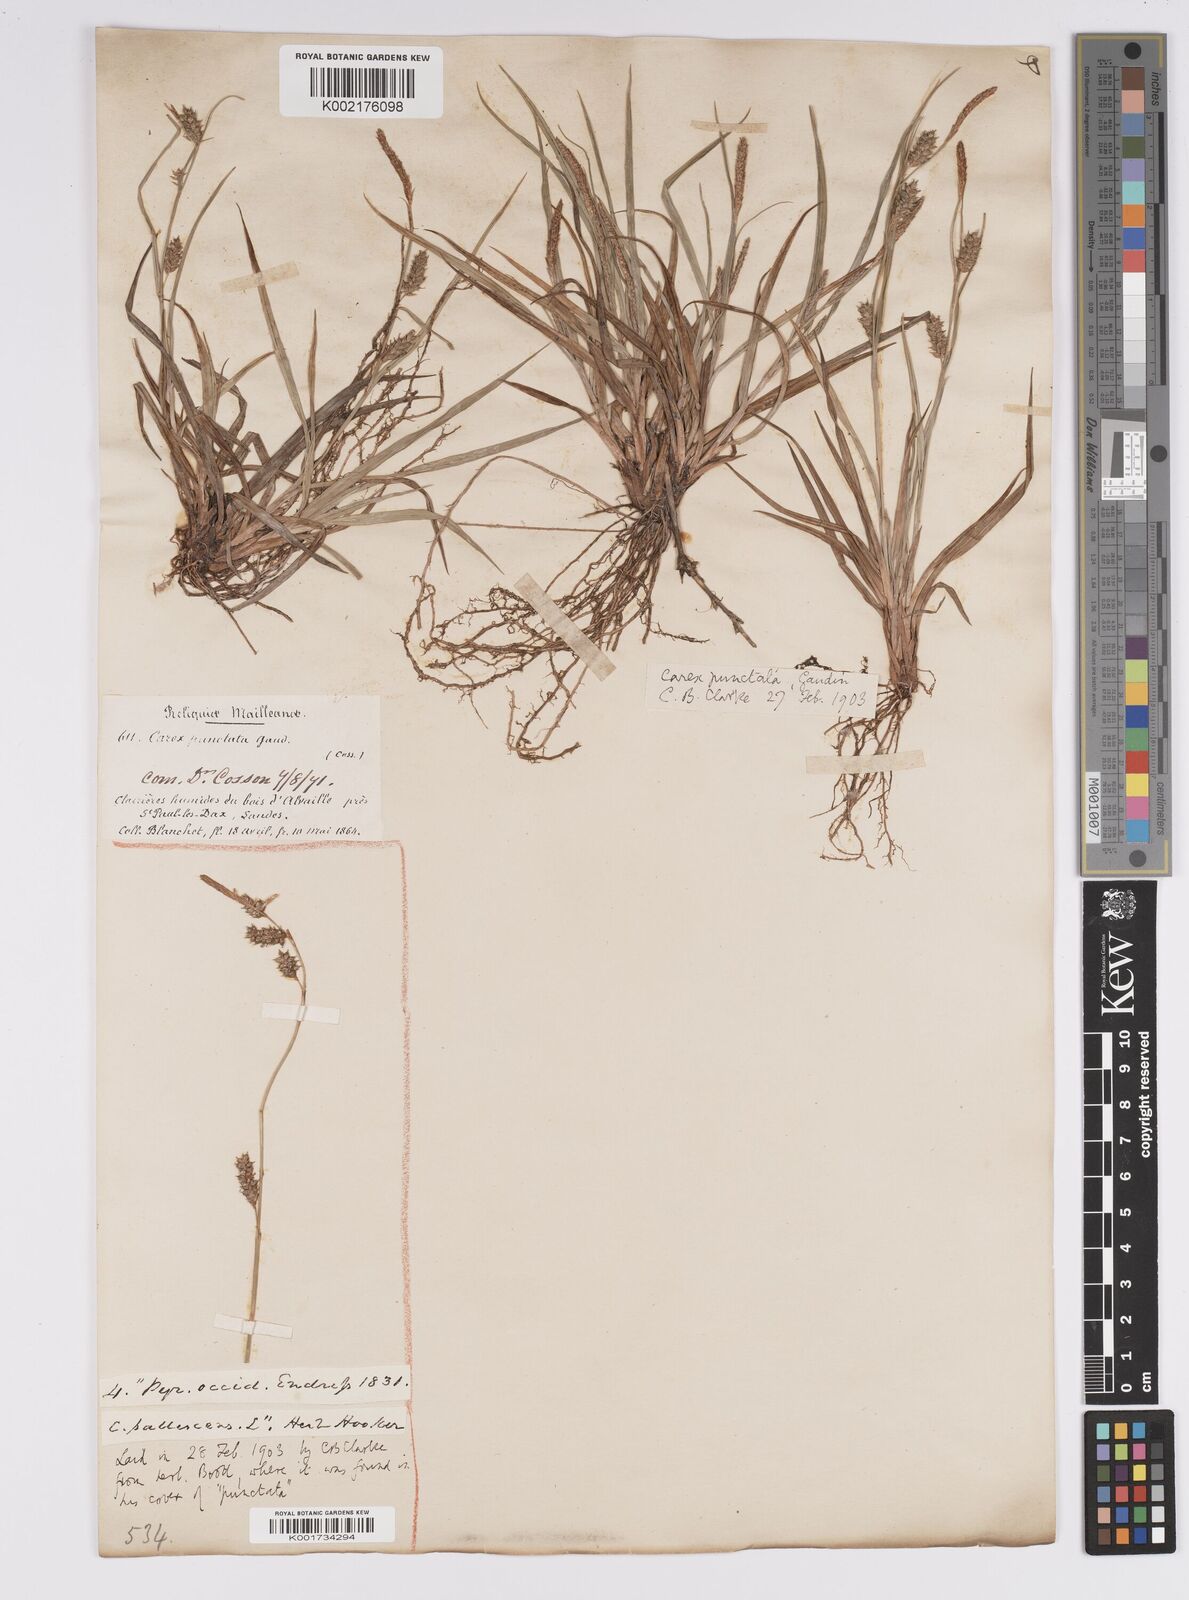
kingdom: Plantae
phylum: Tracheophyta
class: Liliopsida
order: Poales
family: Cyperaceae
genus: Carex
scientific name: Carex punctata
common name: Dotted sedge
